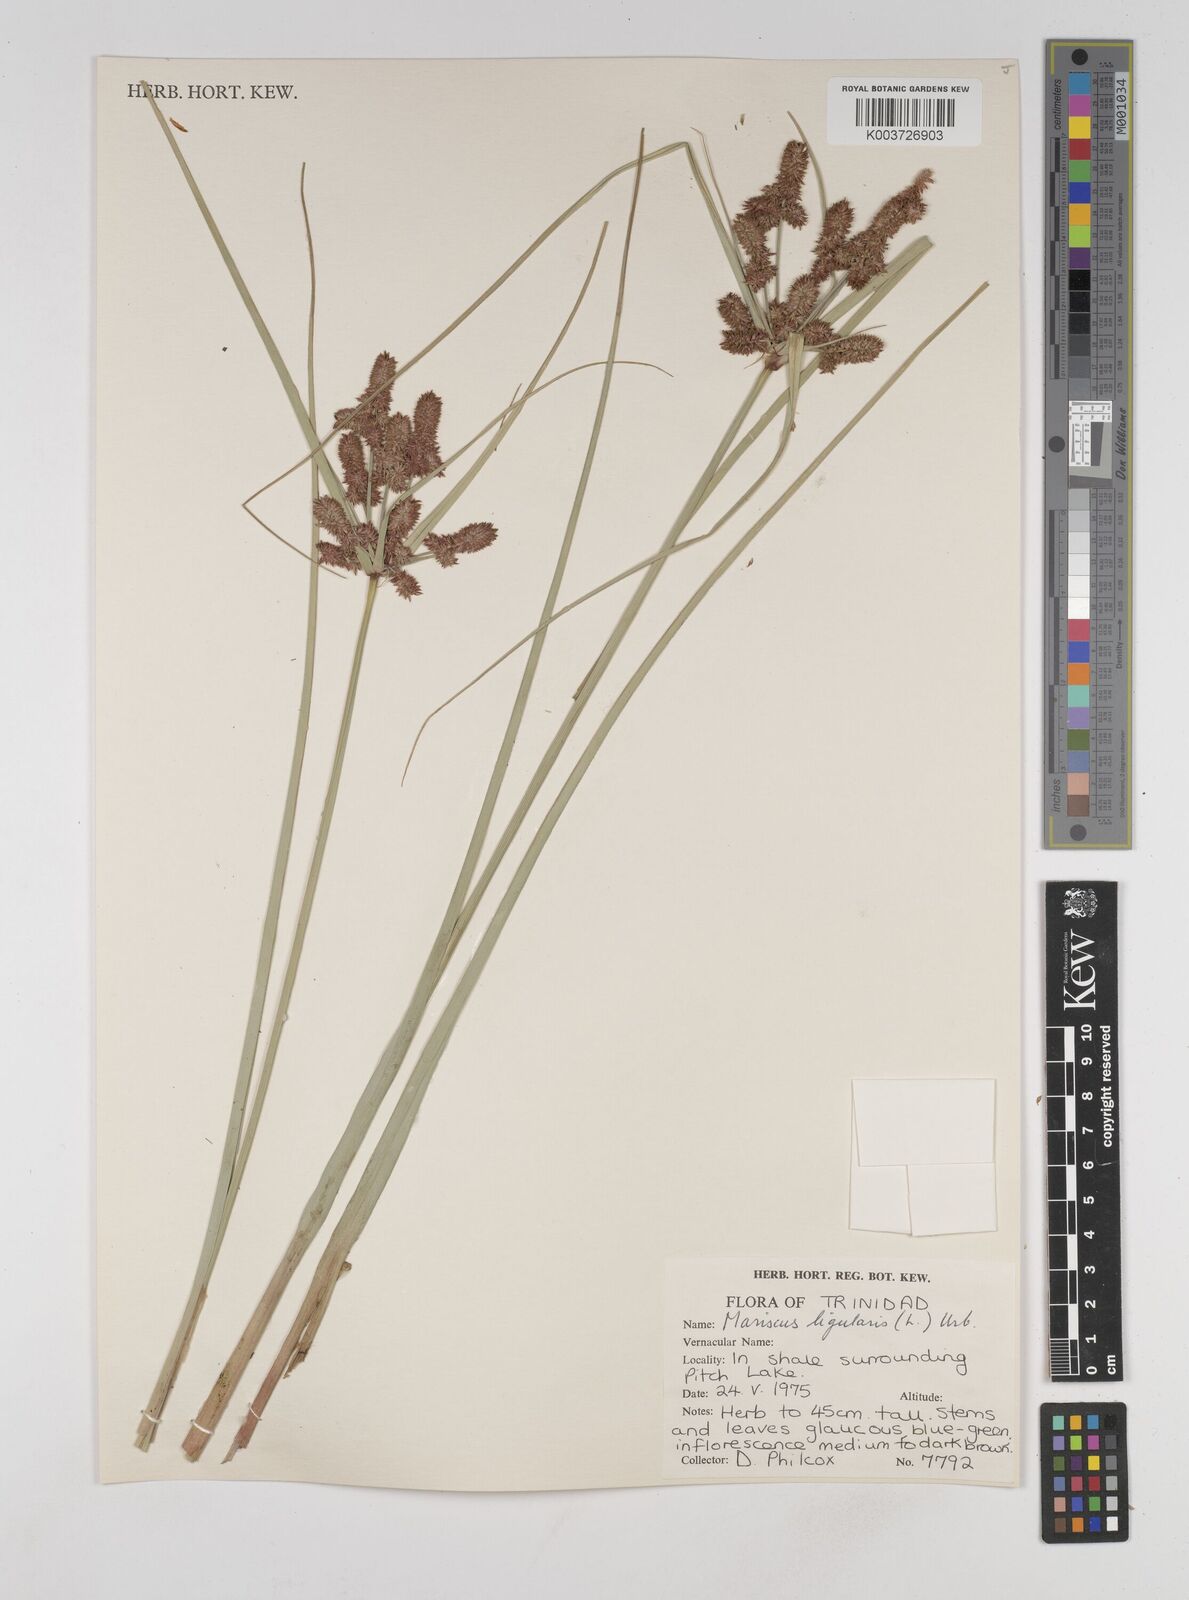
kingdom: Plantae
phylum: Tracheophyta
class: Liliopsida
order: Poales
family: Cyperaceae
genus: Cyperus
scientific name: Cyperus ligularis
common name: Swamp flat sedge
